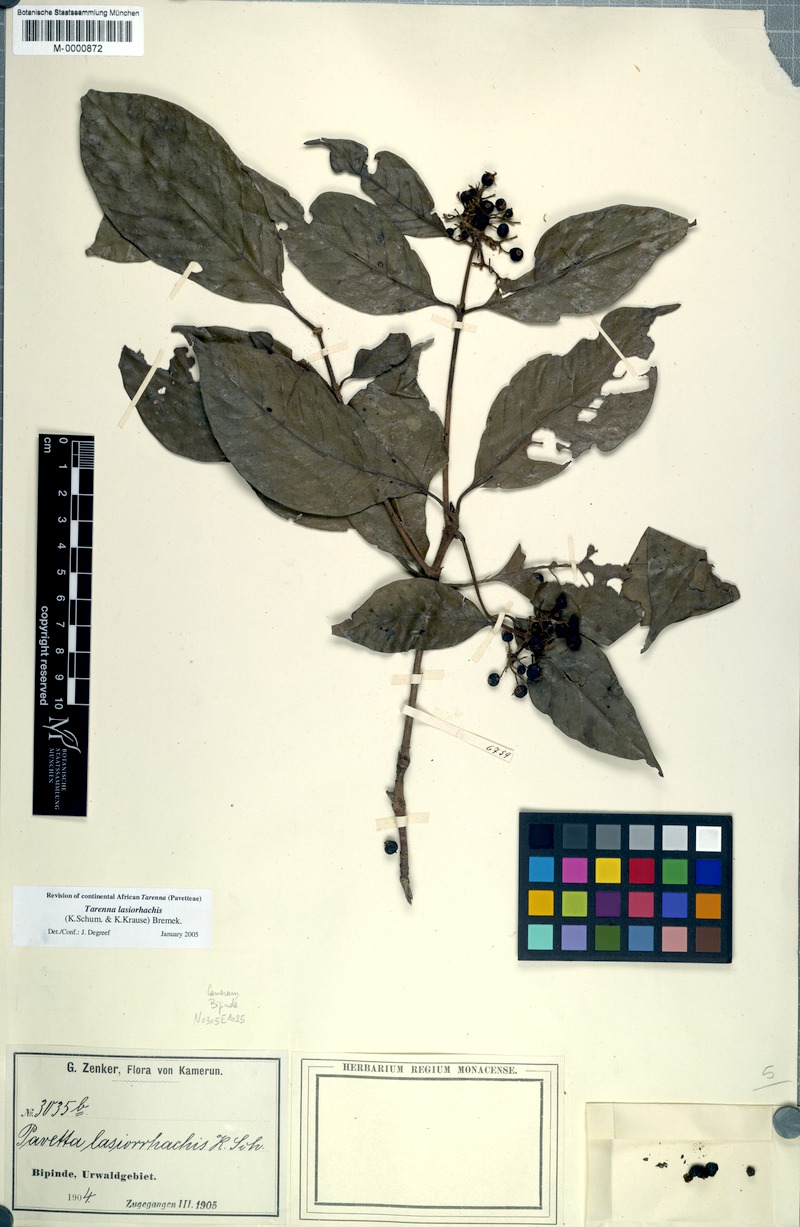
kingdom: Plantae
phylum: Tracheophyta
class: Magnoliopsida
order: Gentianales
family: Rubiaceae
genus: Tarenna
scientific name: Tarenna lasiorhachis
